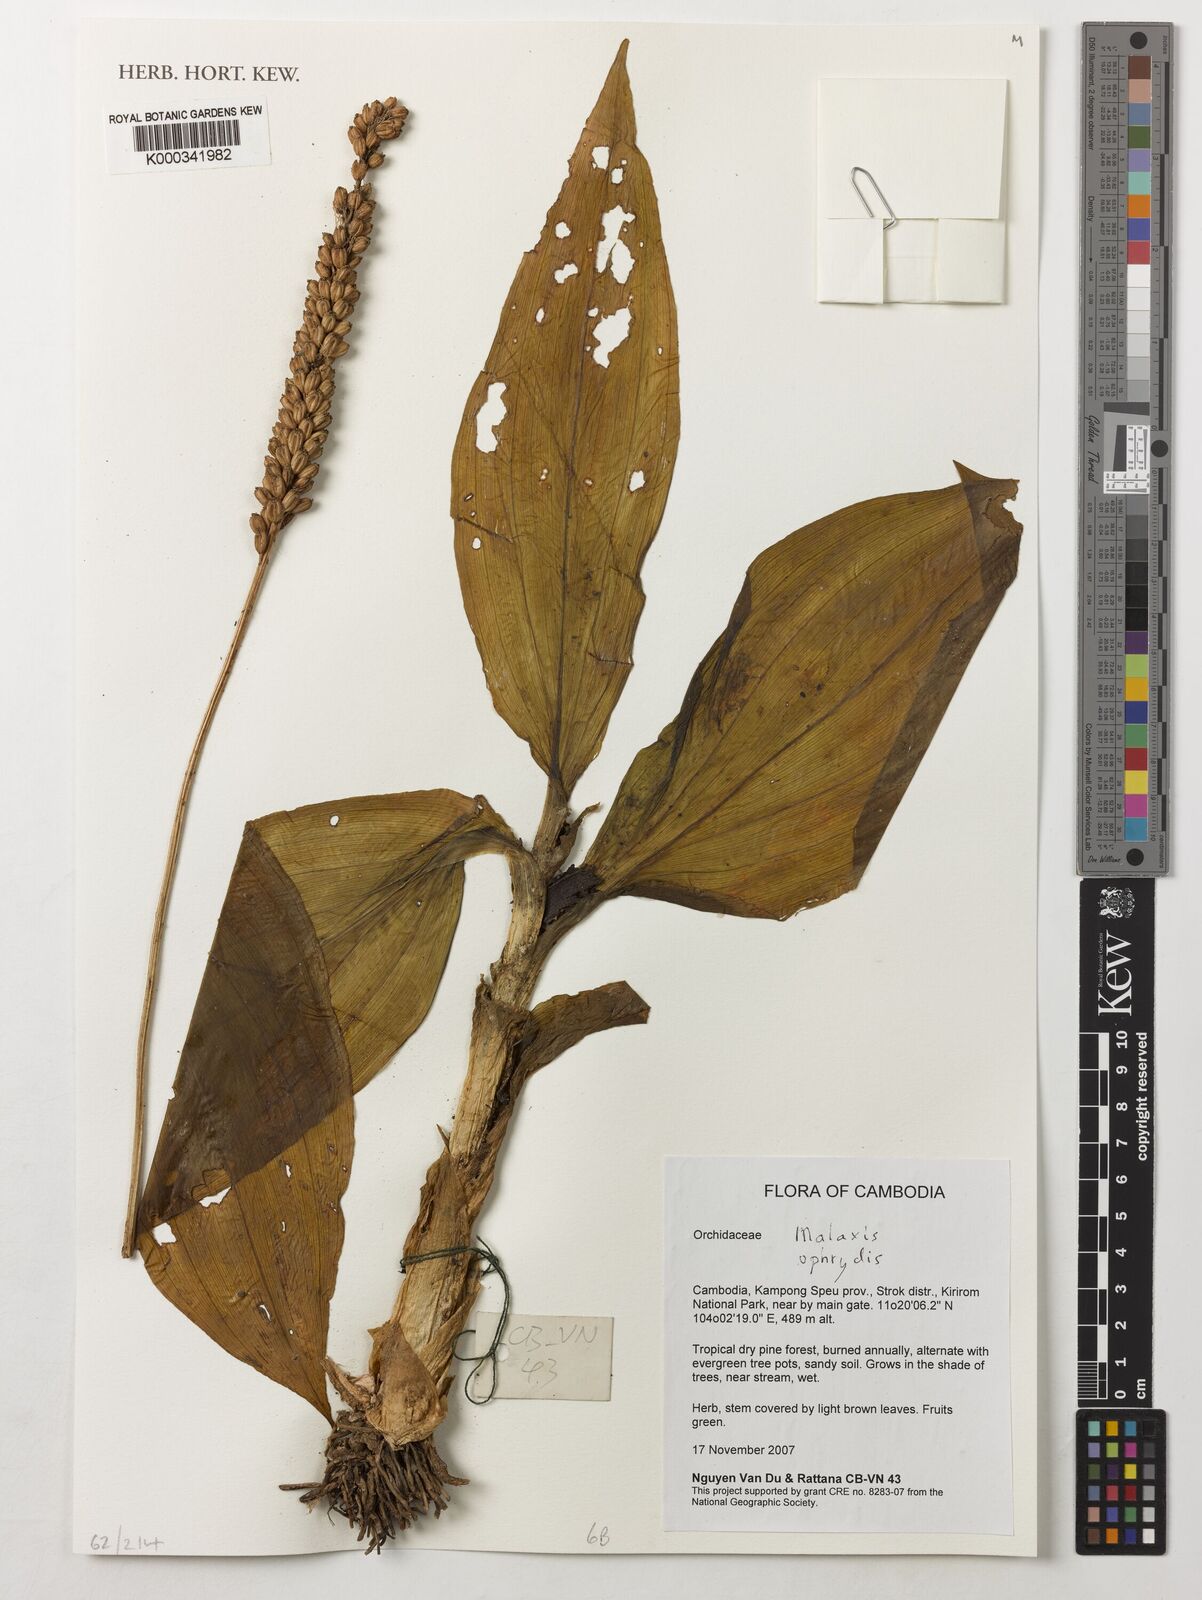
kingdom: Plantae
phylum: Tracheophyta
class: Liliopsida
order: Asparagales
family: Orchidaceae
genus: Dienia
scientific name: Dienia ophrydis
